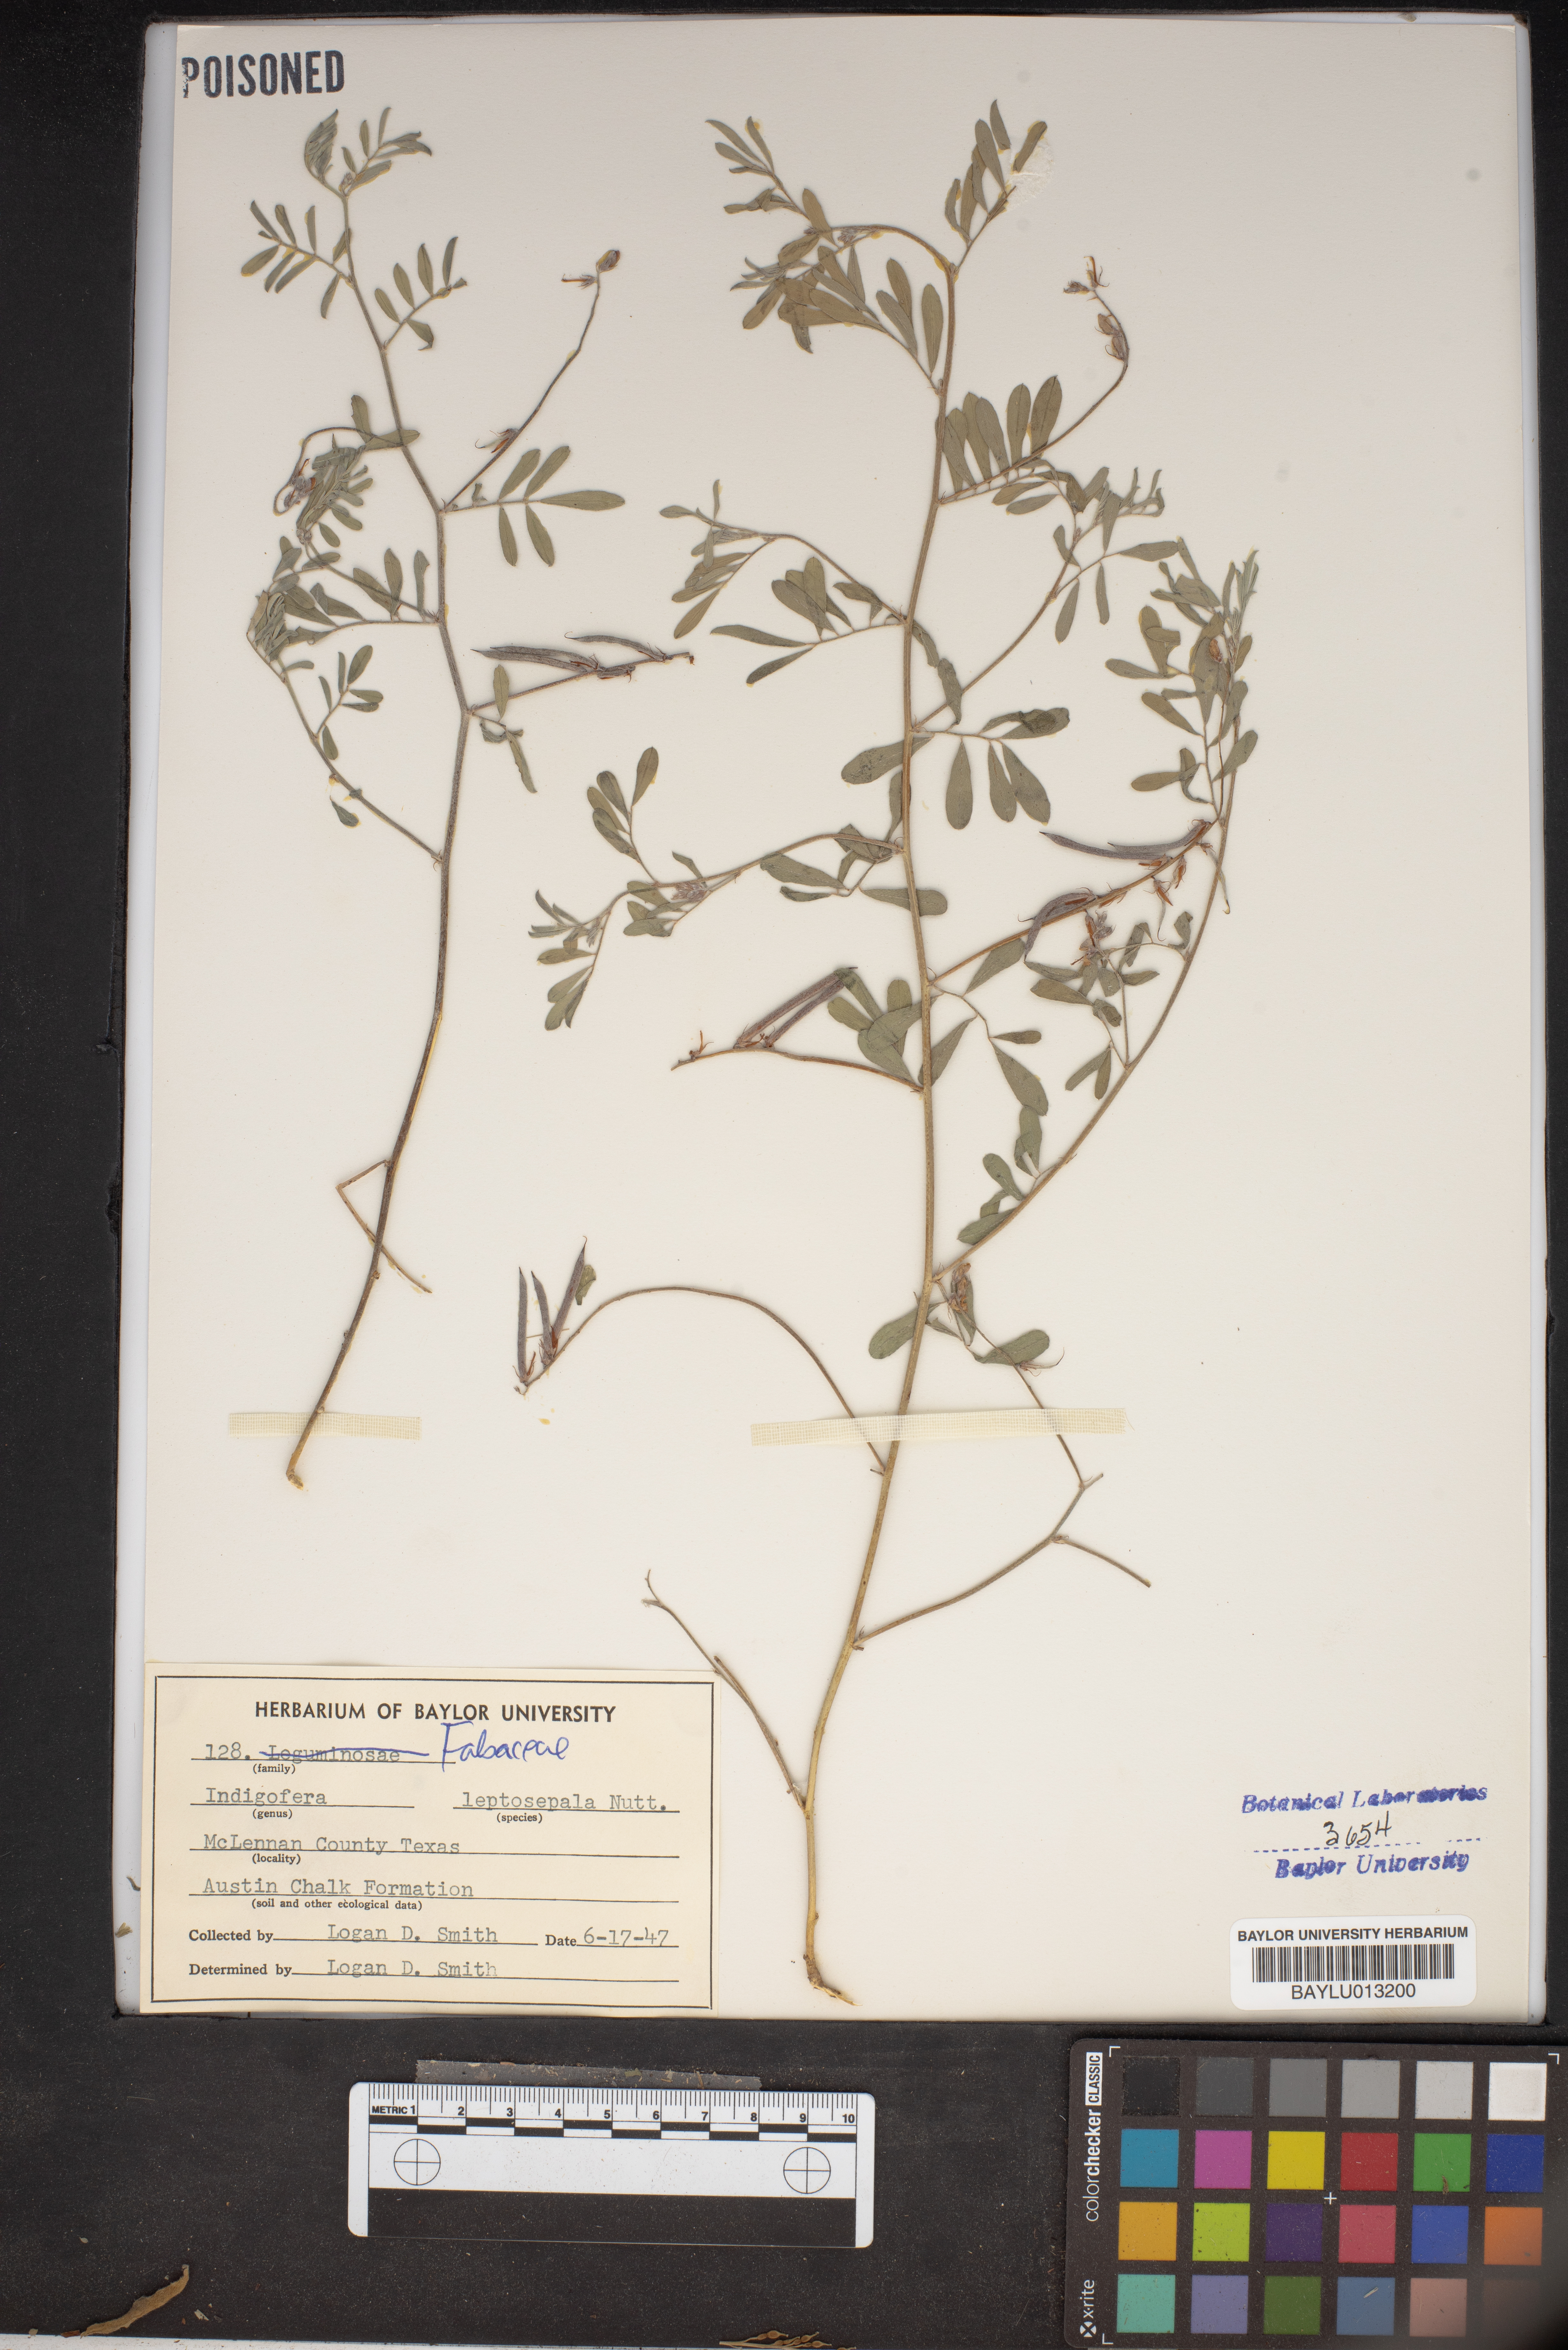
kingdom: Plantae
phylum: Tracheophyta
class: Magnoliopsida
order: Fabales
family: Fabaceae
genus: Indigofera
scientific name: Indigofera argutidens
